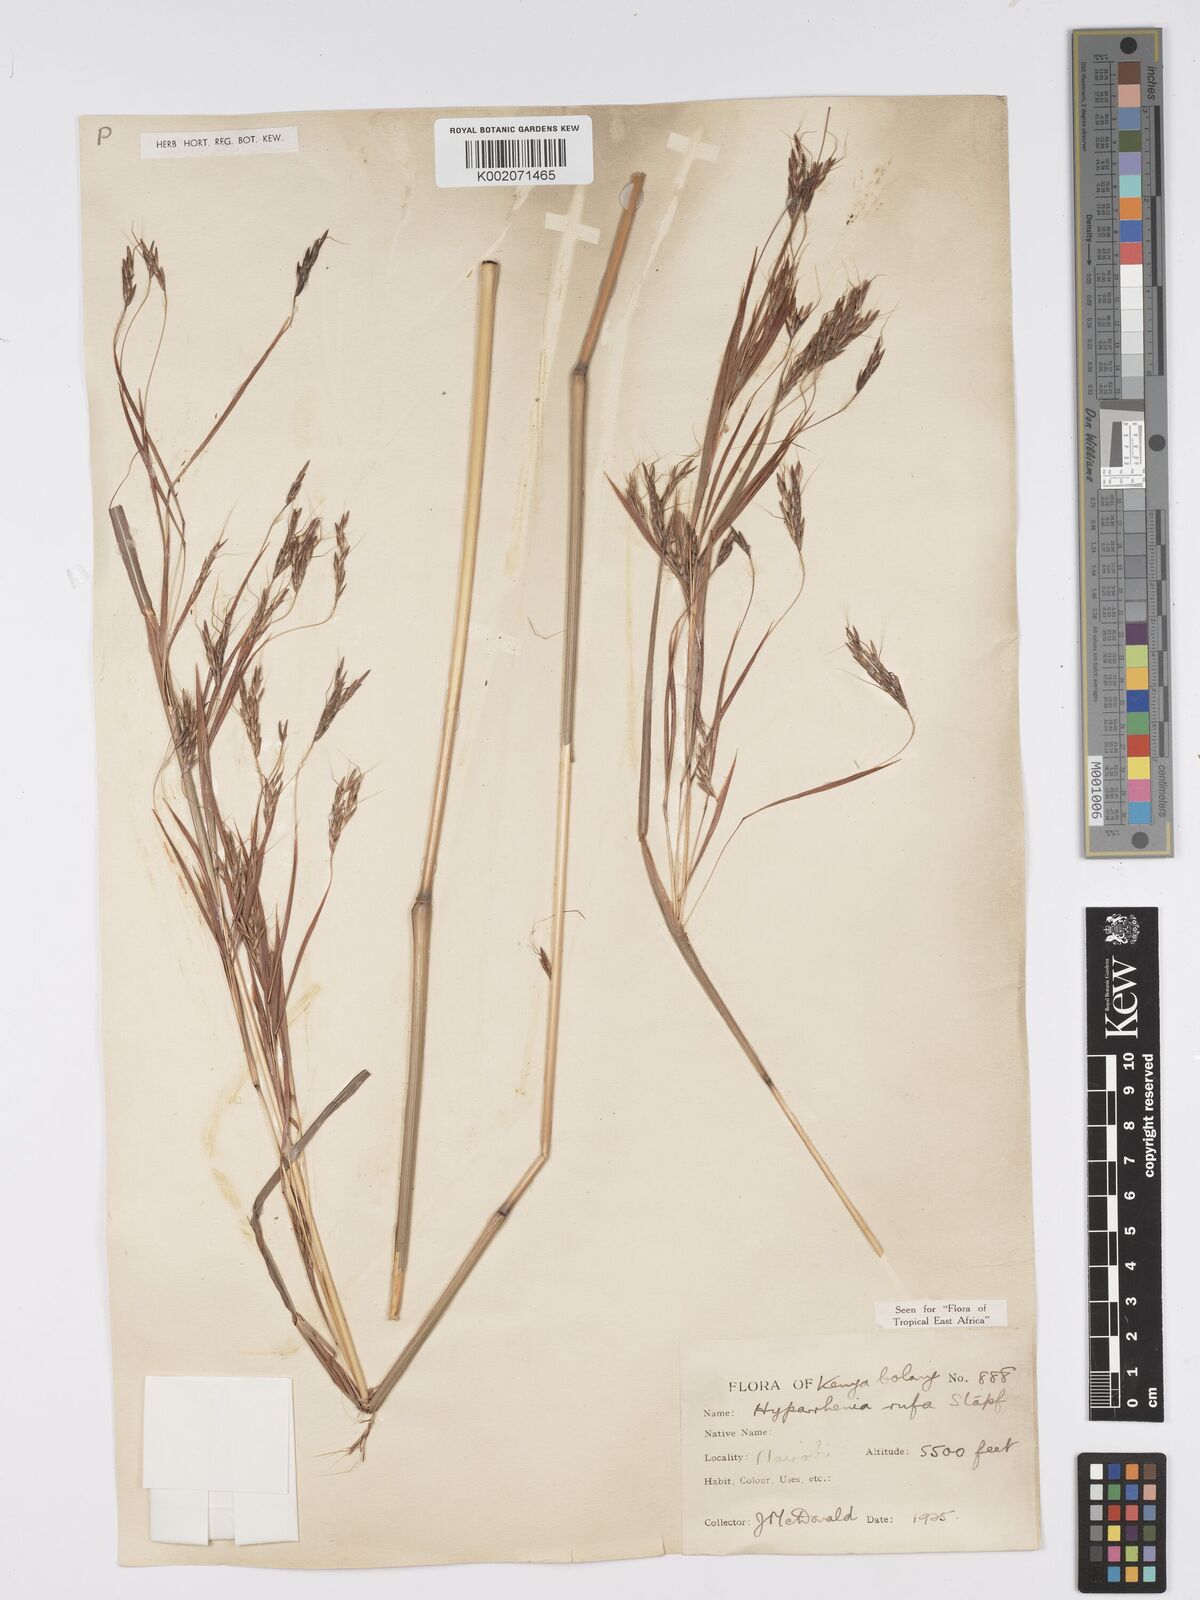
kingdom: Plantae
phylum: Tracheophyta
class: Liliopsida
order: Poales
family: Poaceae
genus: Hyparrhenia
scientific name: Hyparrhenia rufa
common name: Jaraguagrass
